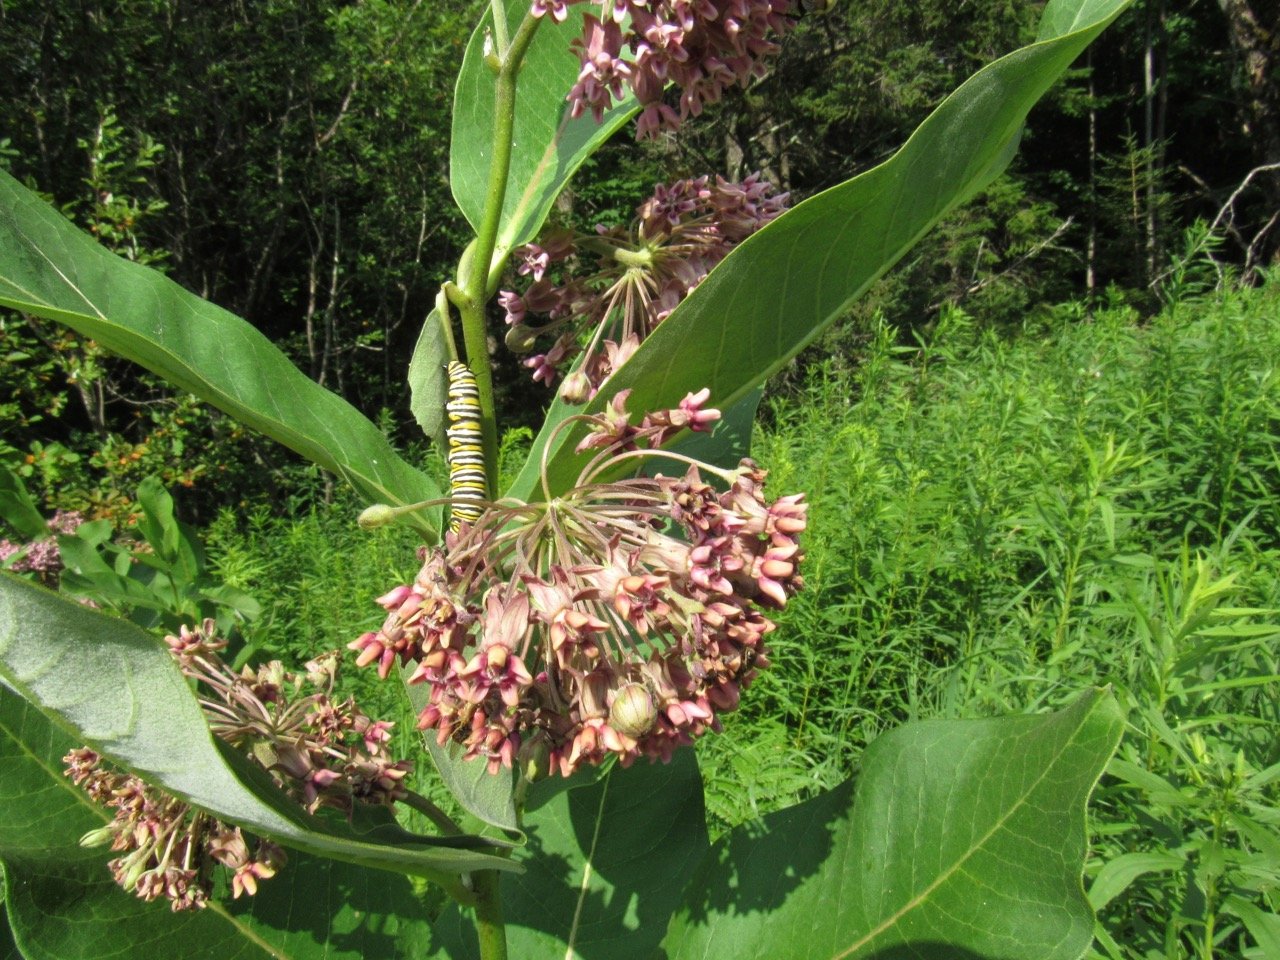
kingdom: Animalia
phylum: Arthropoda
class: Insecta
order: Lepidoptera
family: Nymphalidae
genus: Danaus
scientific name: Danaus plexippus
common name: Monarch
